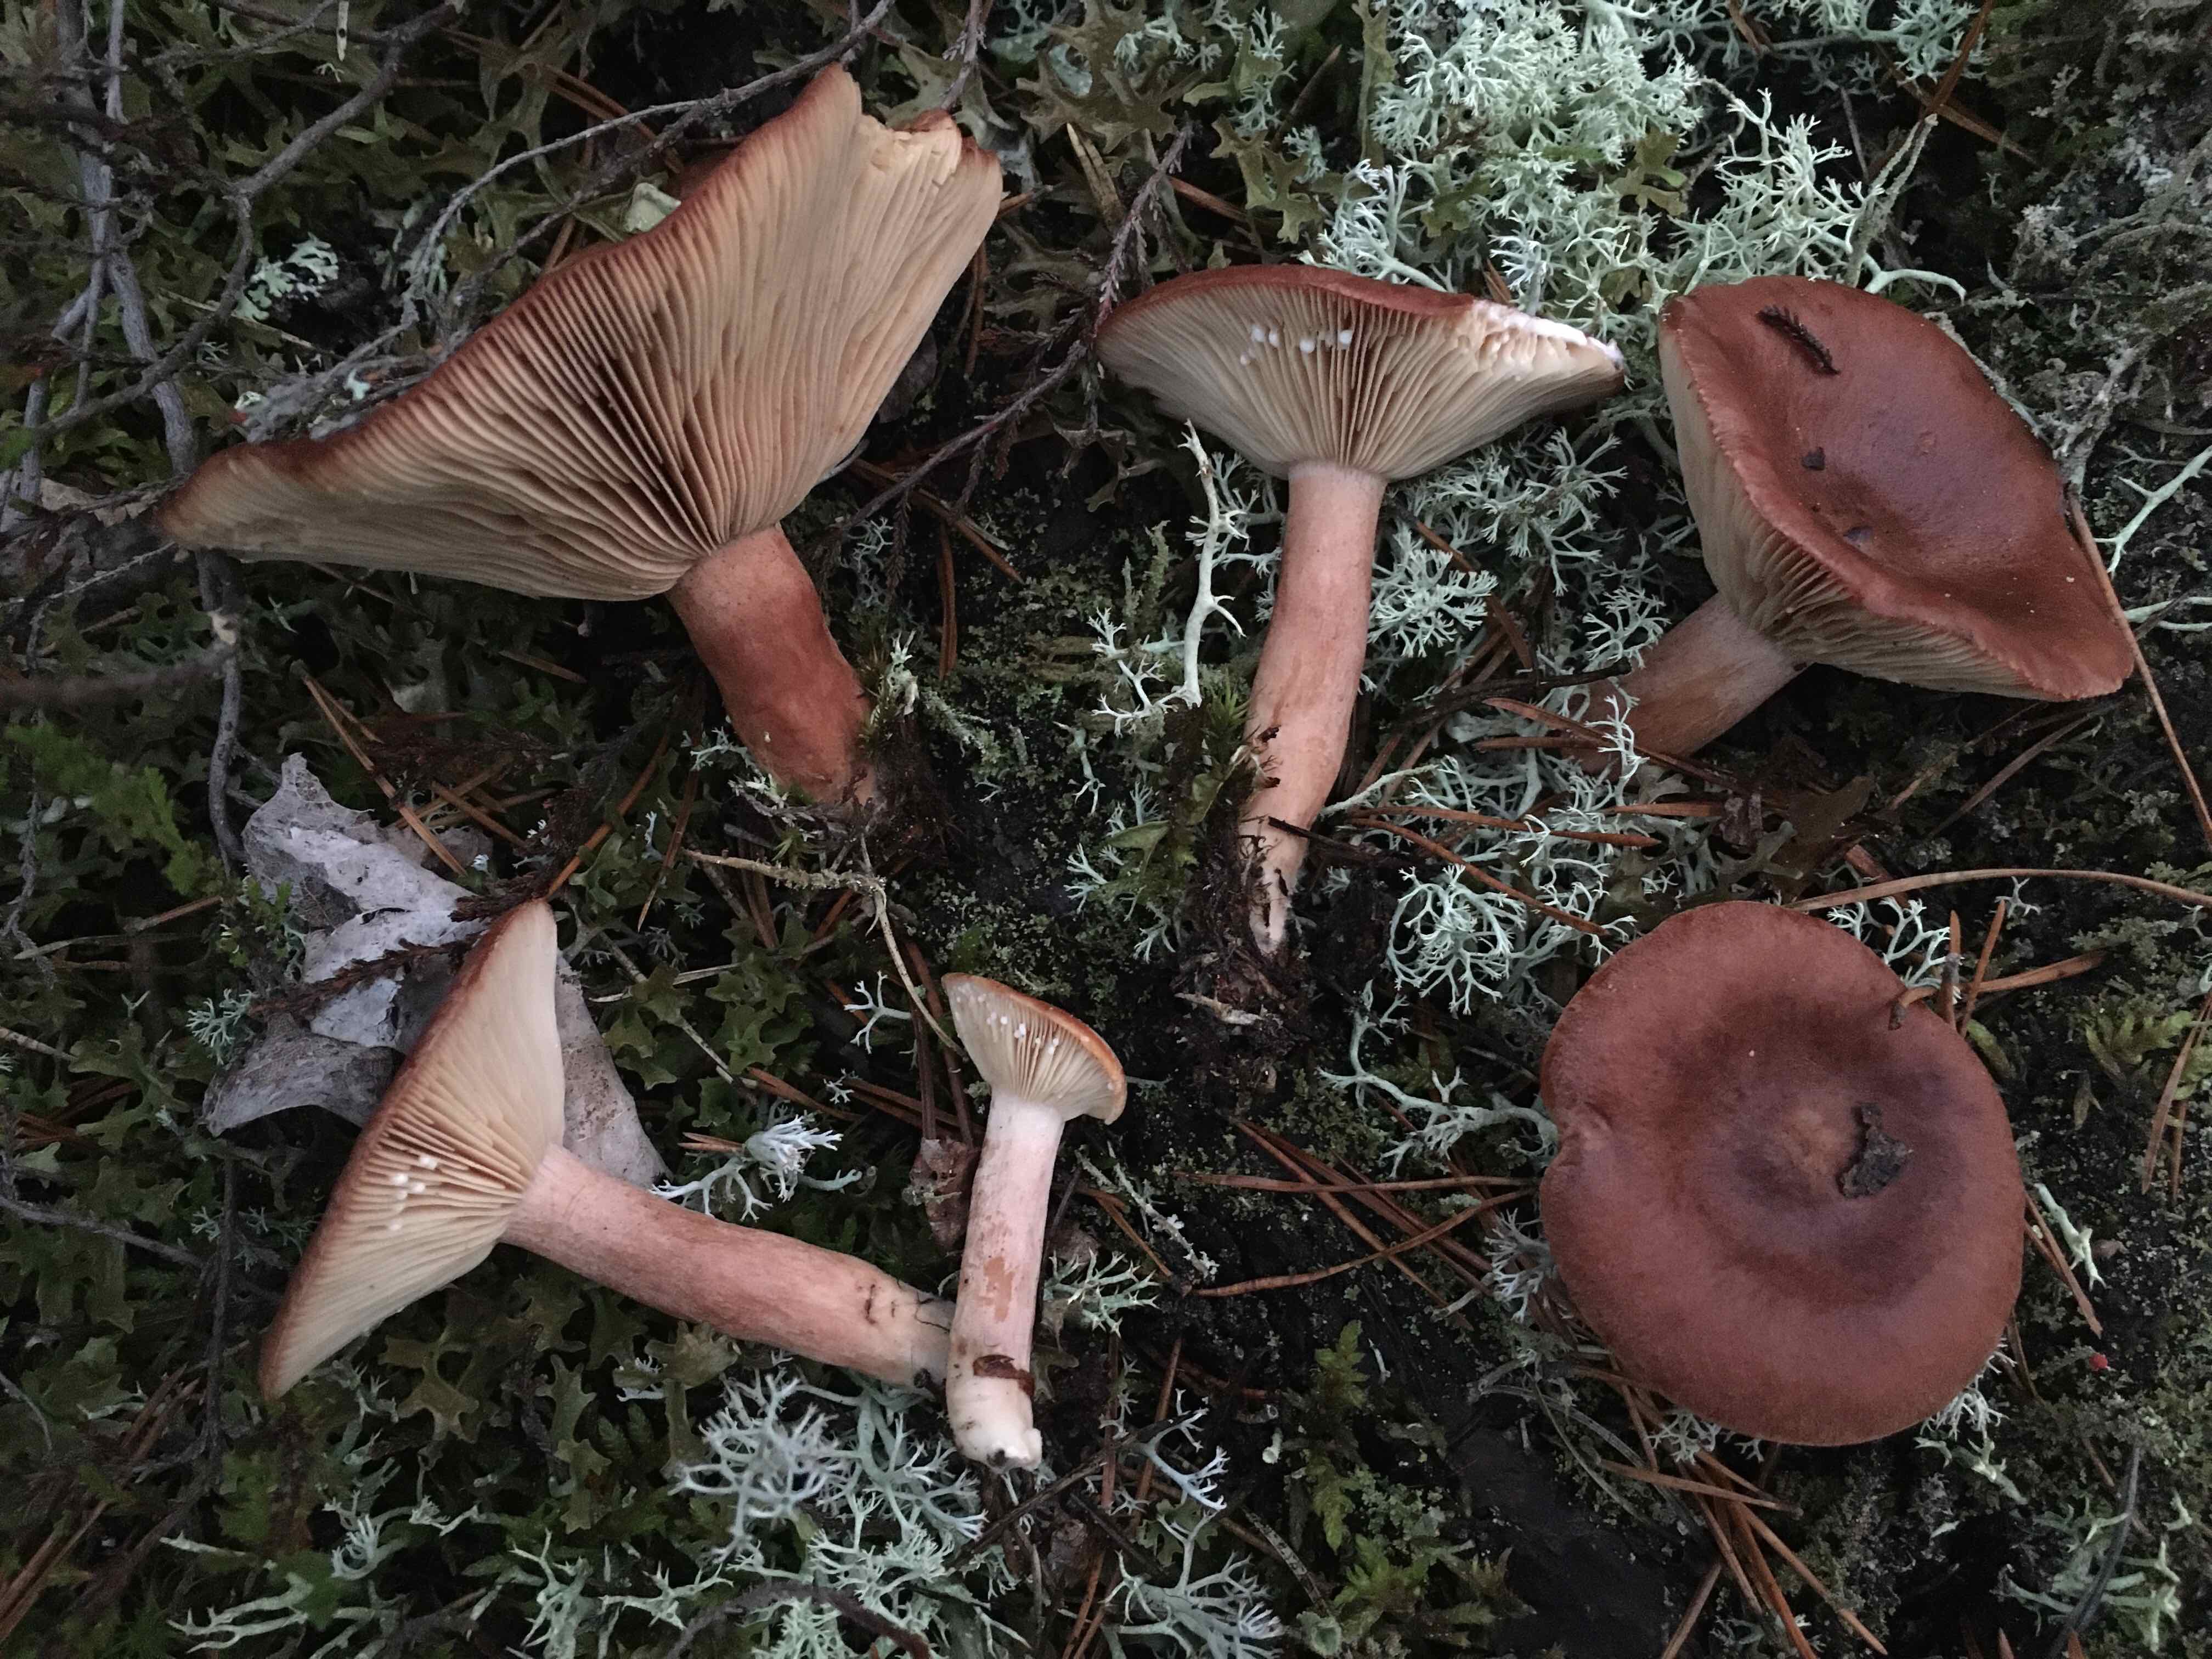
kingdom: Fungi
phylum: Basidiomycota
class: Agaricomycetes
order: Russulales
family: Russulaceae
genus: Lactarius
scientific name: Lactarius rufus
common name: rødbrun mælkehat
